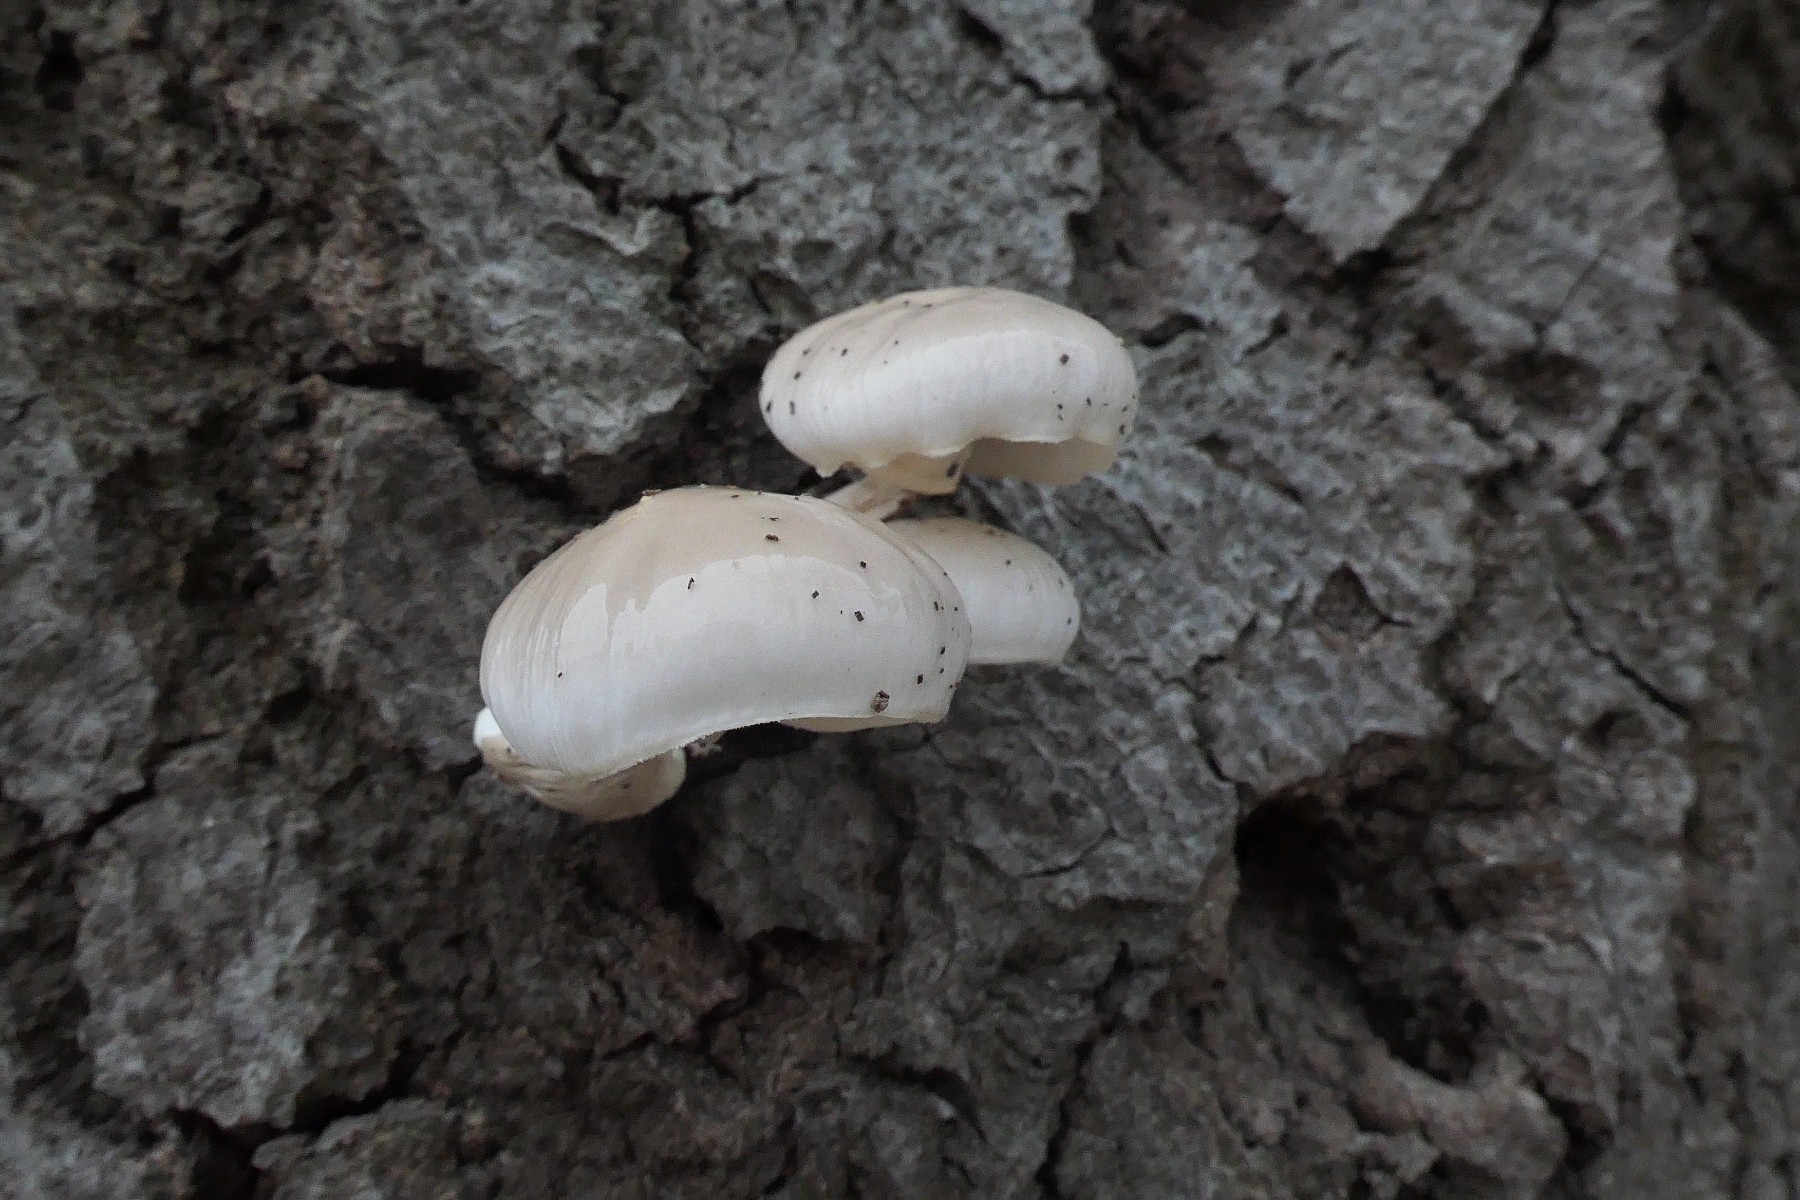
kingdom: Fungi
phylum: Basidiomycota
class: Agaricomycetes
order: Agaricales
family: Physalacriaceae
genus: Mucidula
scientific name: Mucidula mucida
